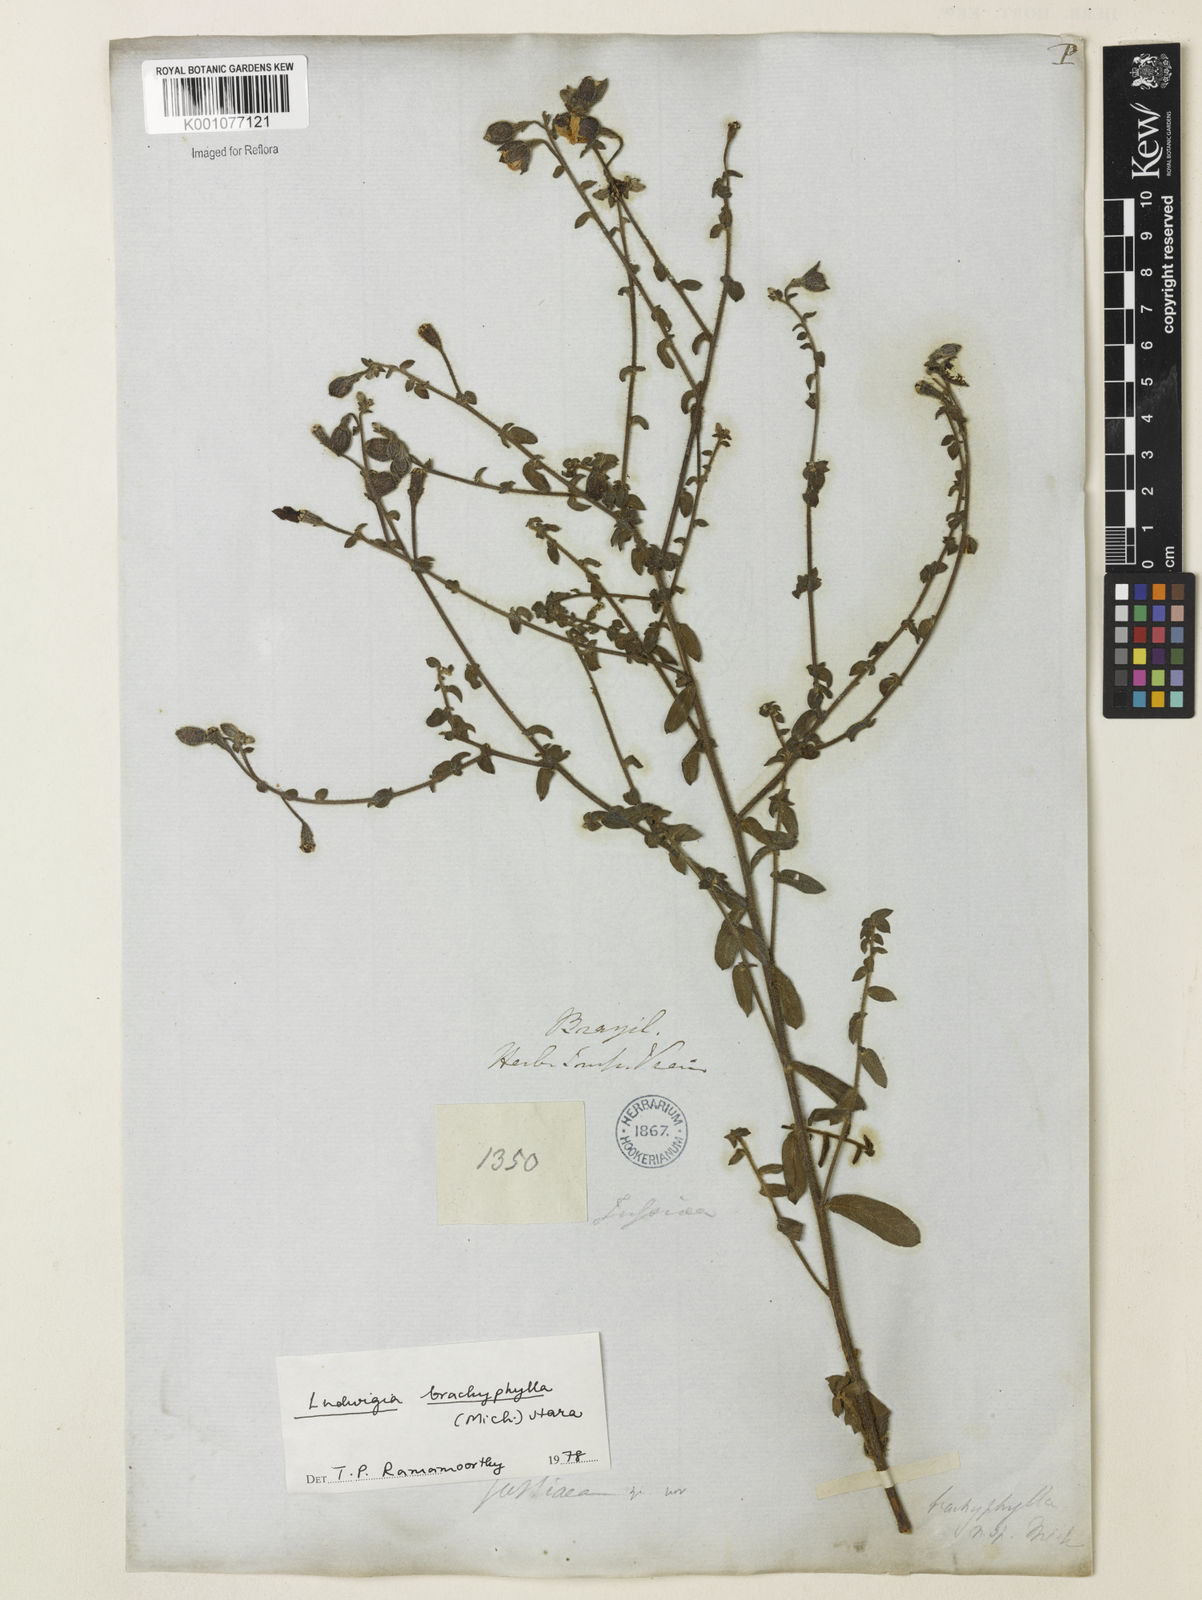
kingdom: Plantae
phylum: Tracheophyta
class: Magnoliopsida
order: Myrtales
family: Onagraceae
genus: Ludwigia
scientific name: Ludwigia brachyphylla
